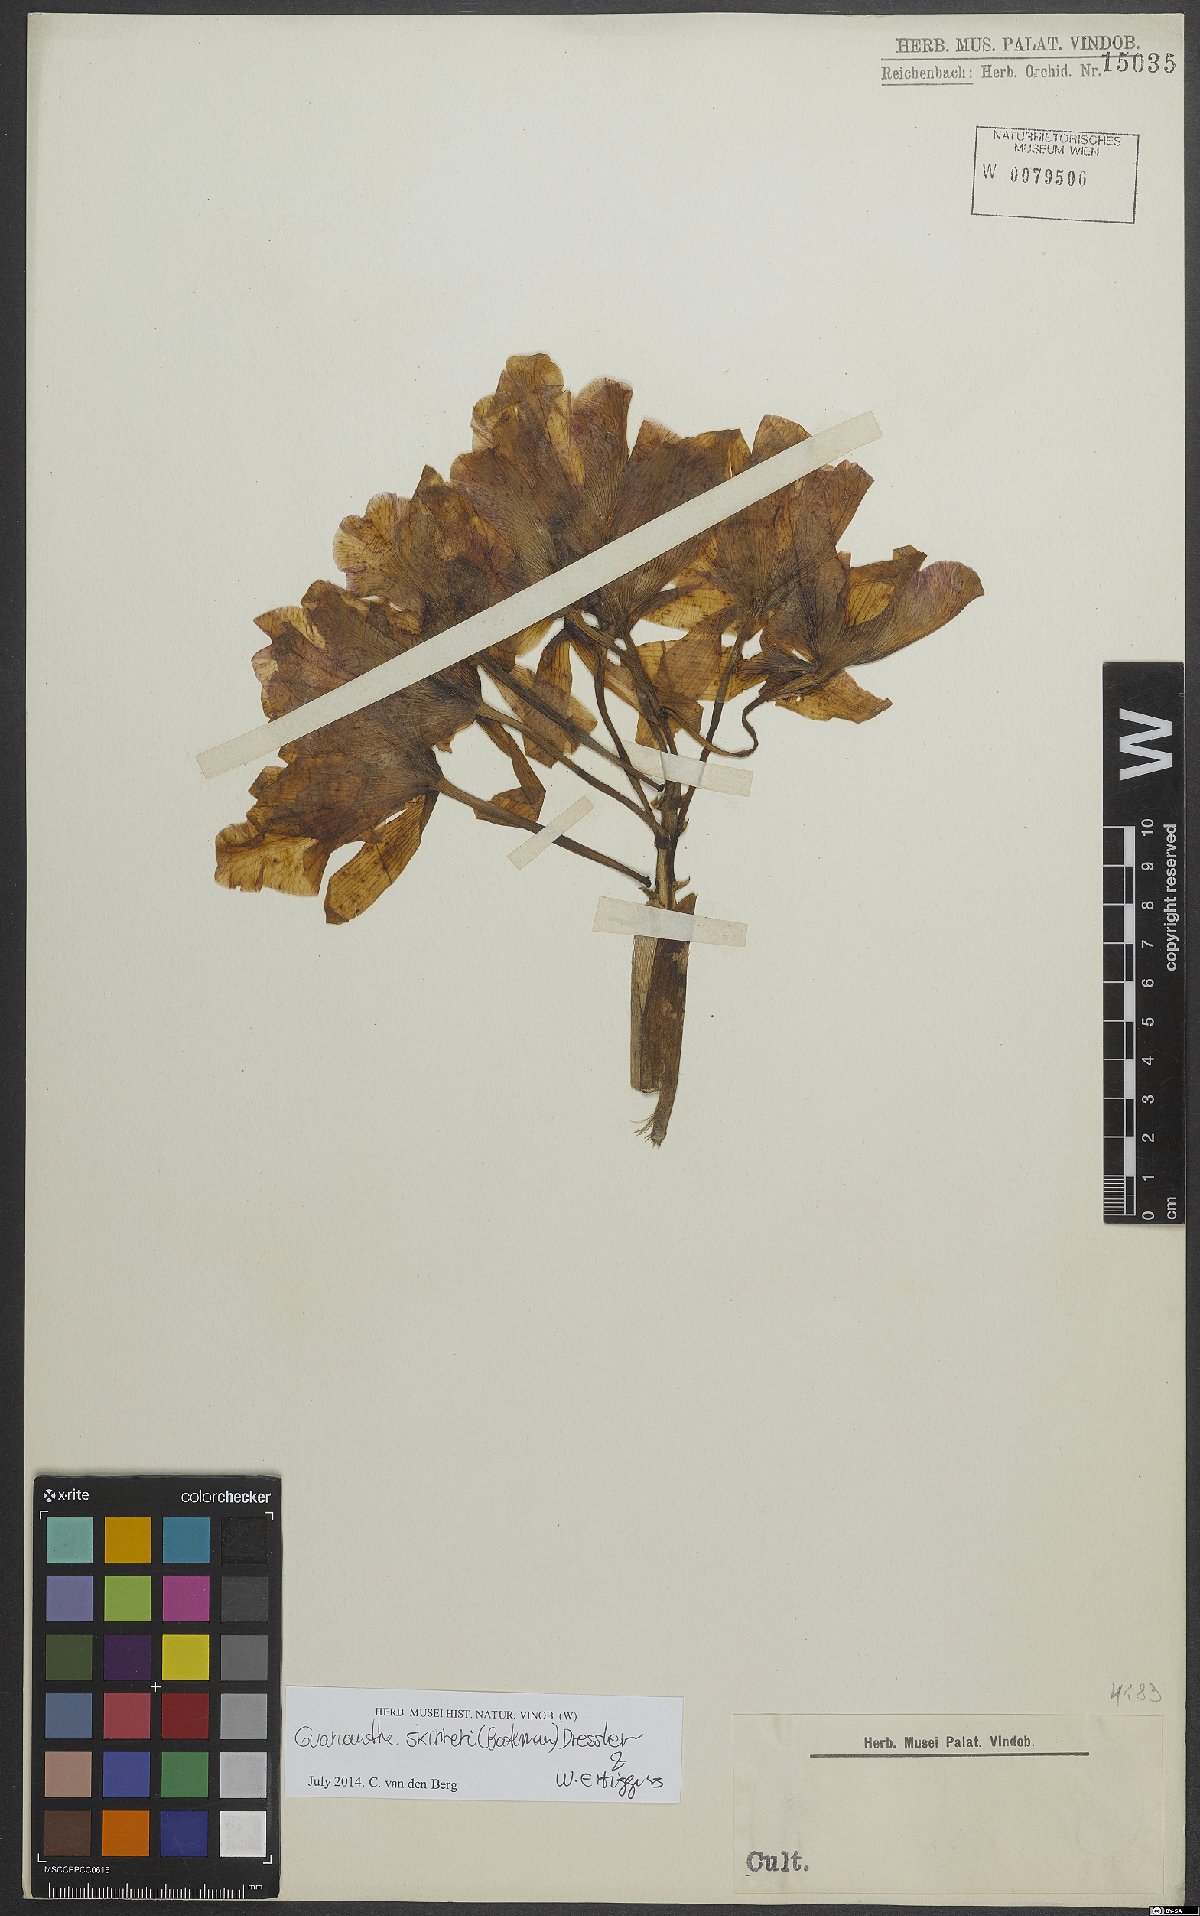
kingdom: Plantae
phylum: Tracheophyta
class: Liliopsida
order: Asparagales
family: Orchidaceae
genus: Guarianthe
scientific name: Guarianthe skinneri
